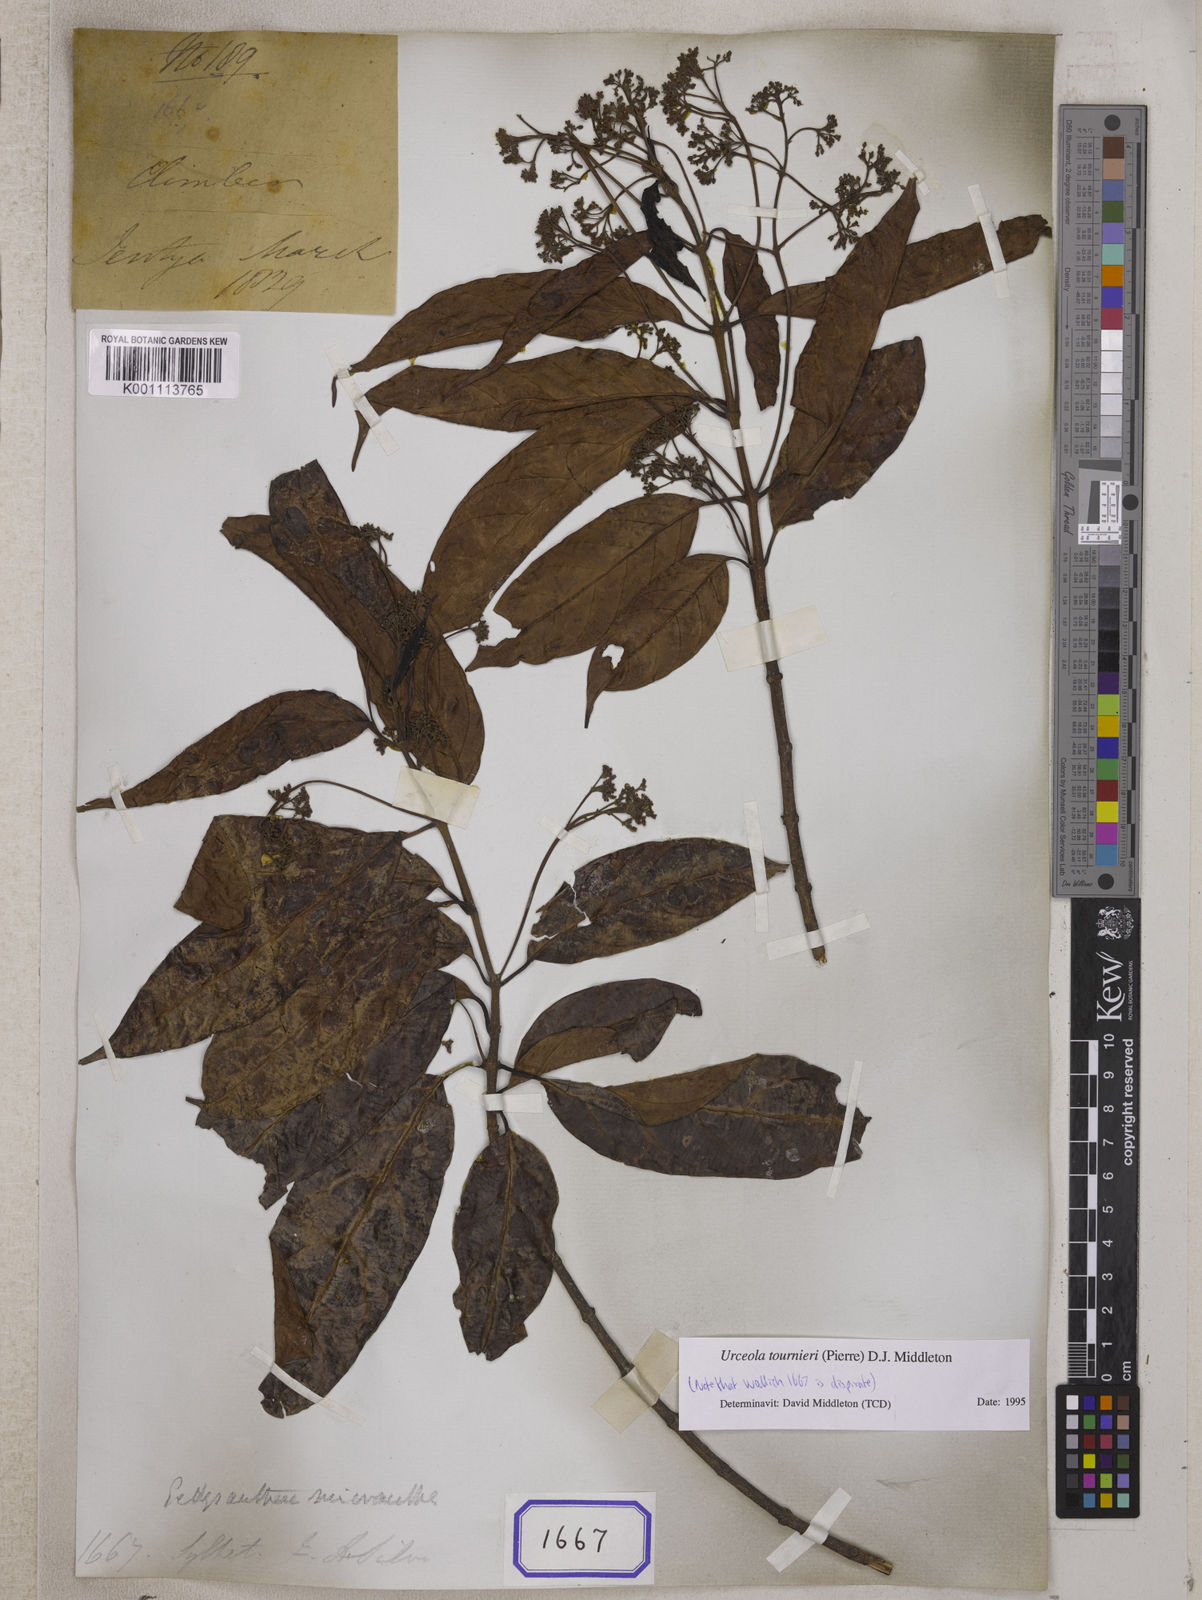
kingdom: Plantae
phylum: Tracheophyta
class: Magnoliopsida
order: Gentianales
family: Apocynaceae
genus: Echites
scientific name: Echites
